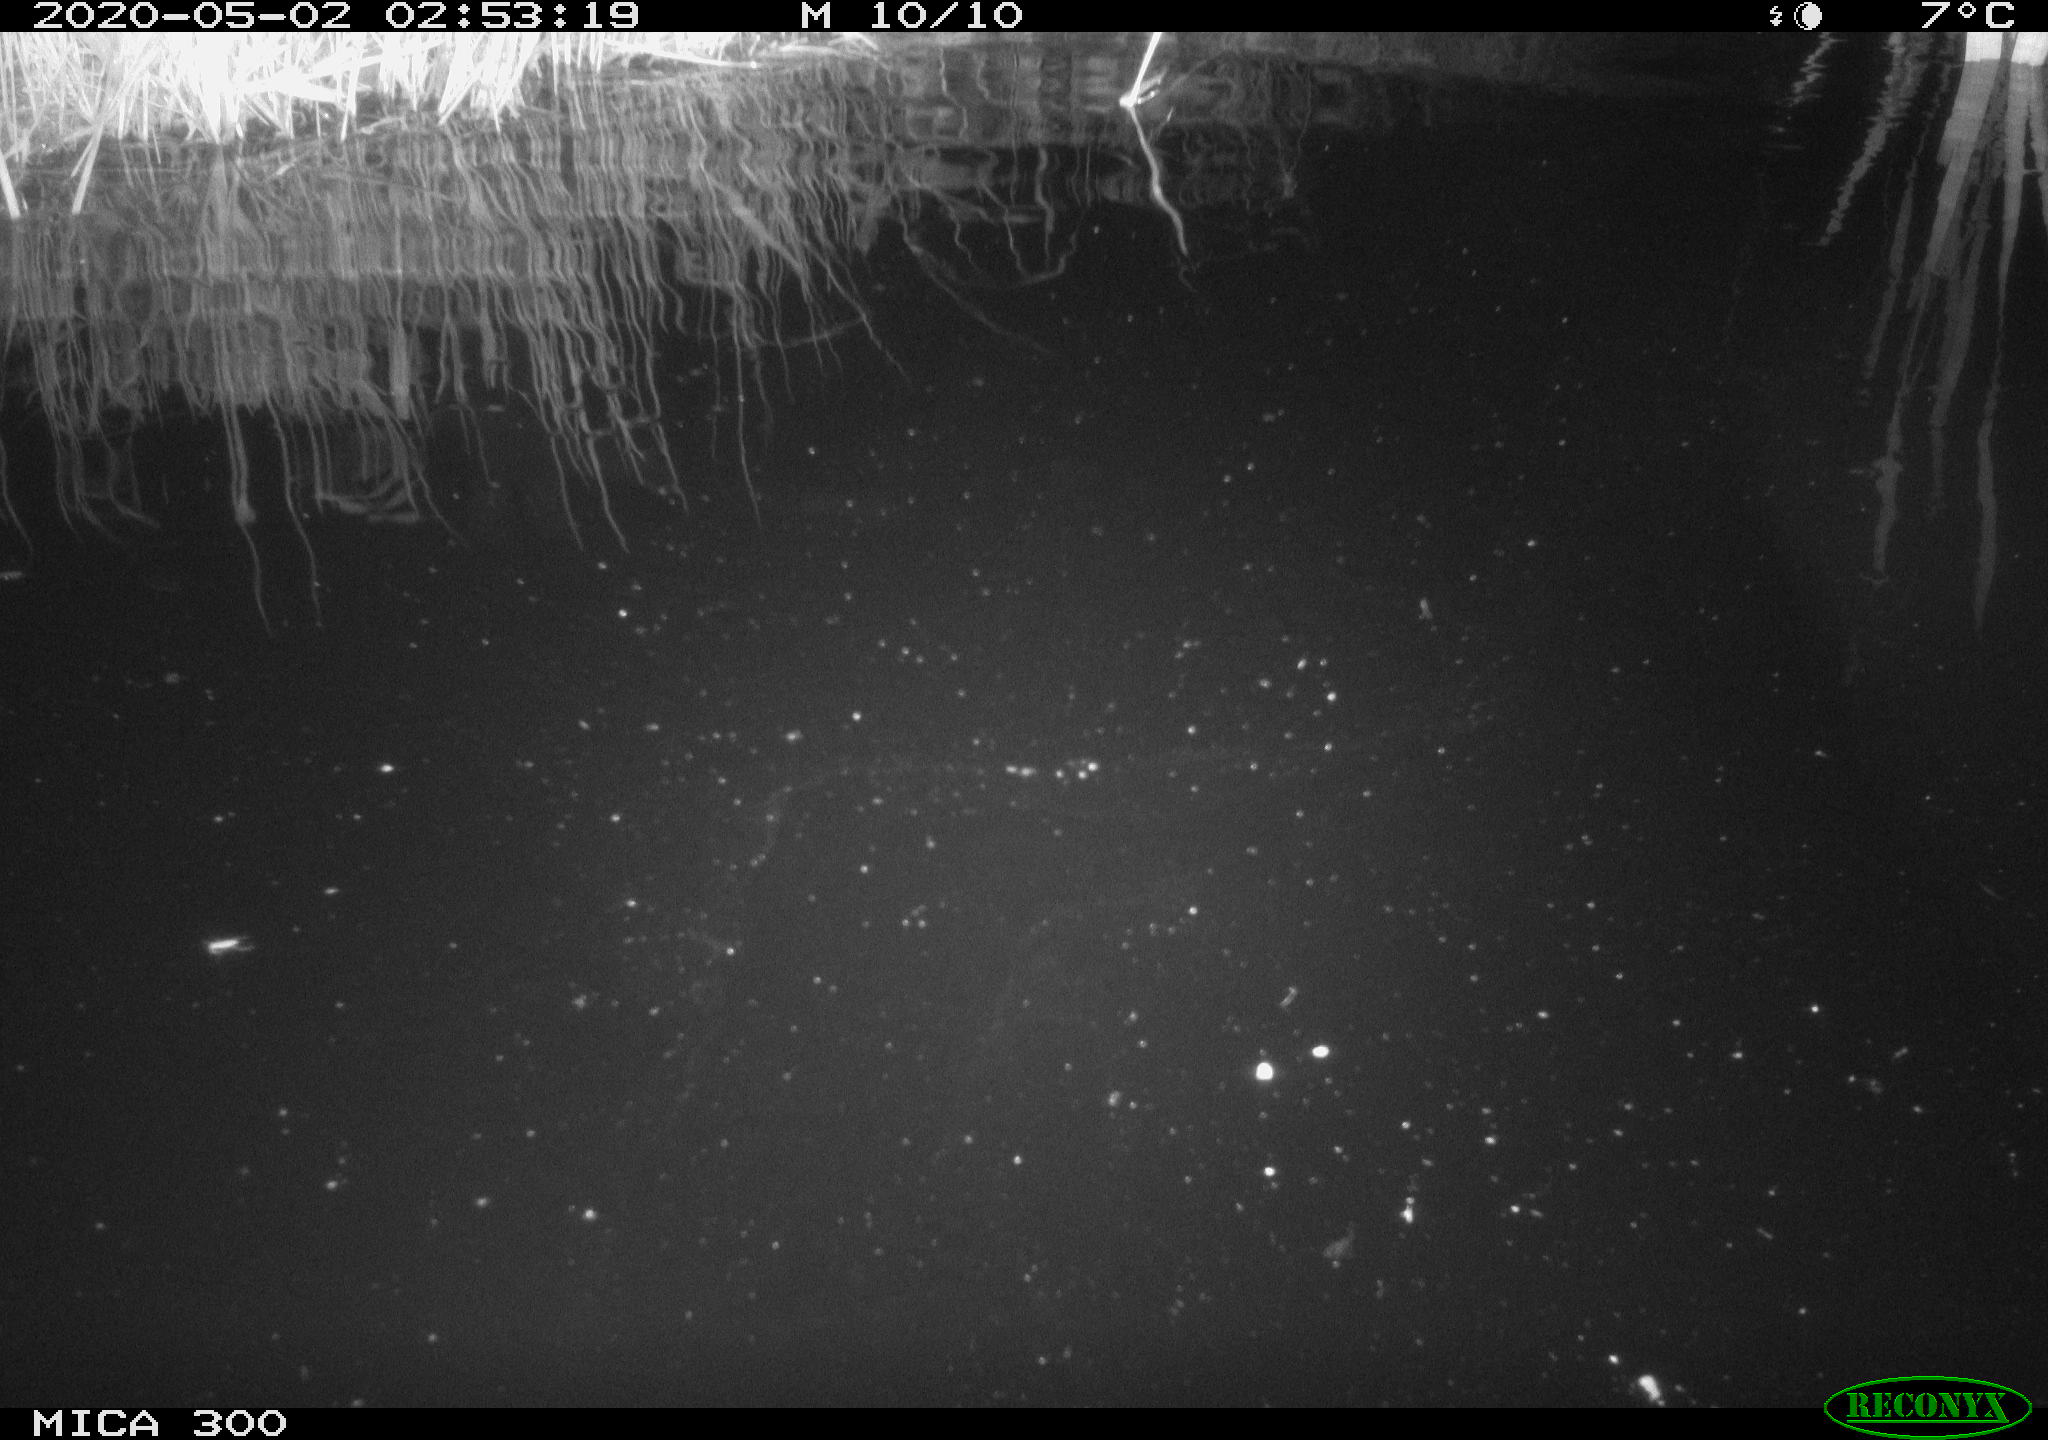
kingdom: Animalia
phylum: Chordata
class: Mammalia
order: Rodentia
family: Castoridae
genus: Castor
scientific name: Castor fiber
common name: Eurasian beaver
